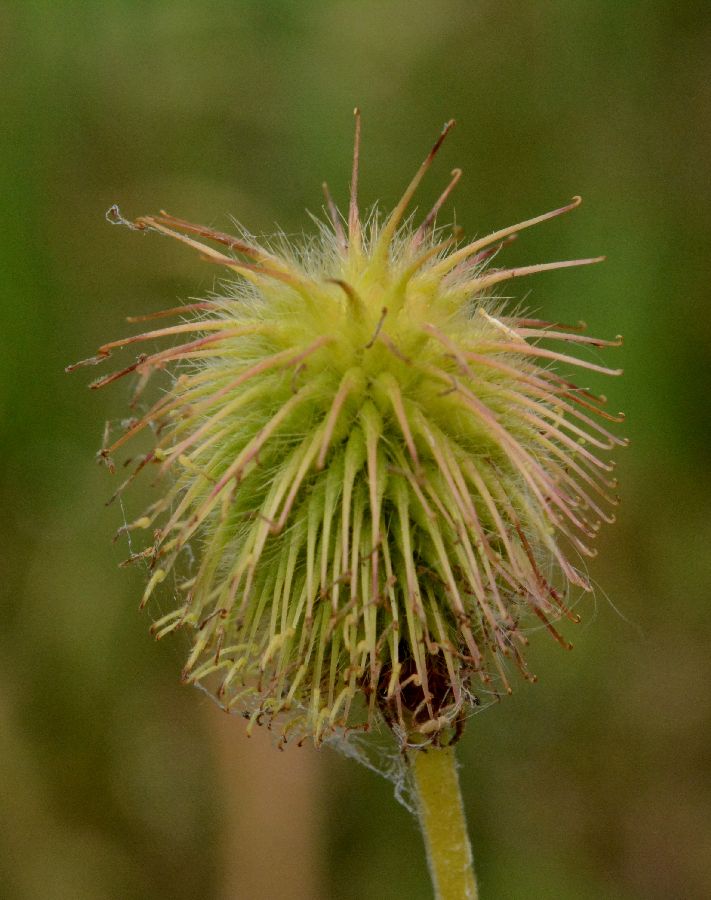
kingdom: Plantae
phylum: Tracheophyta
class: Magnoliopsida
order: Rosales
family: Rosaceae
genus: Geum
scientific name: Geum aleppicum
